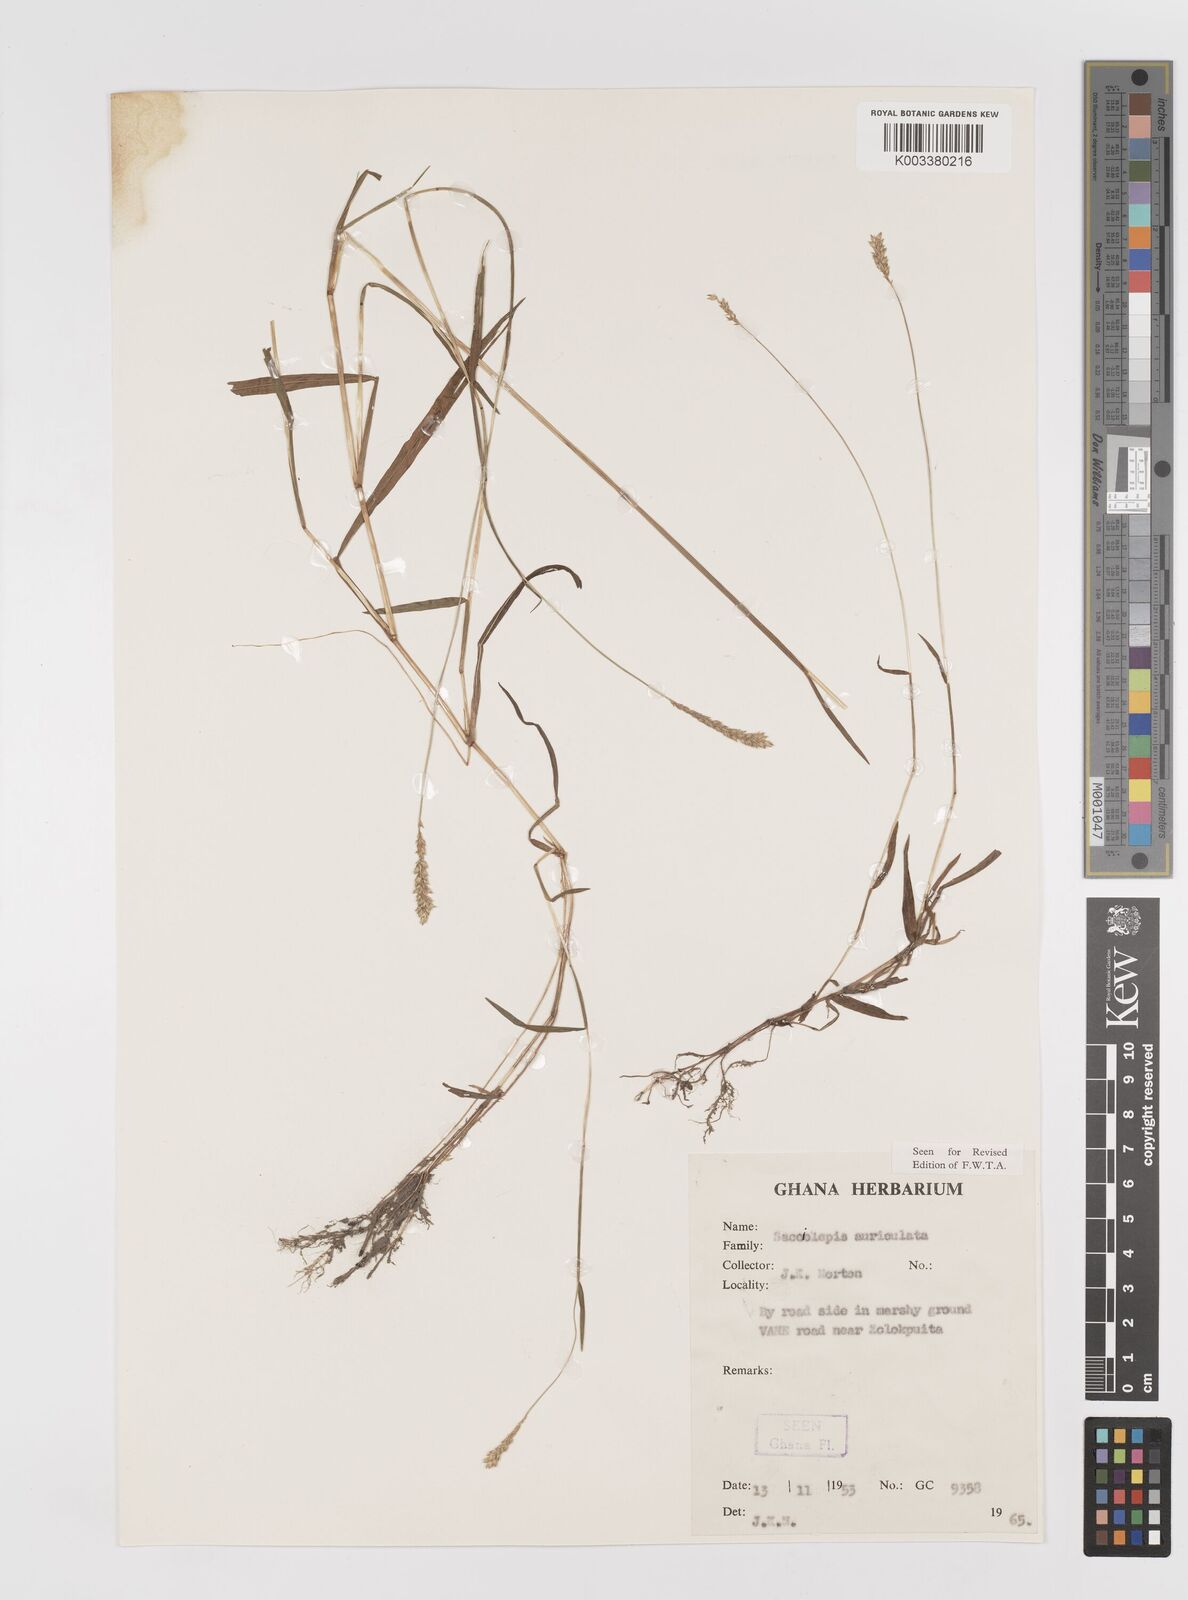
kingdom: Plantae
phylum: Tracheophyta
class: Liliopsida
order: Poales
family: Poaceae
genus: Sacciolepis
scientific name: Sacciolepis indica
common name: Glenwoodgrass
